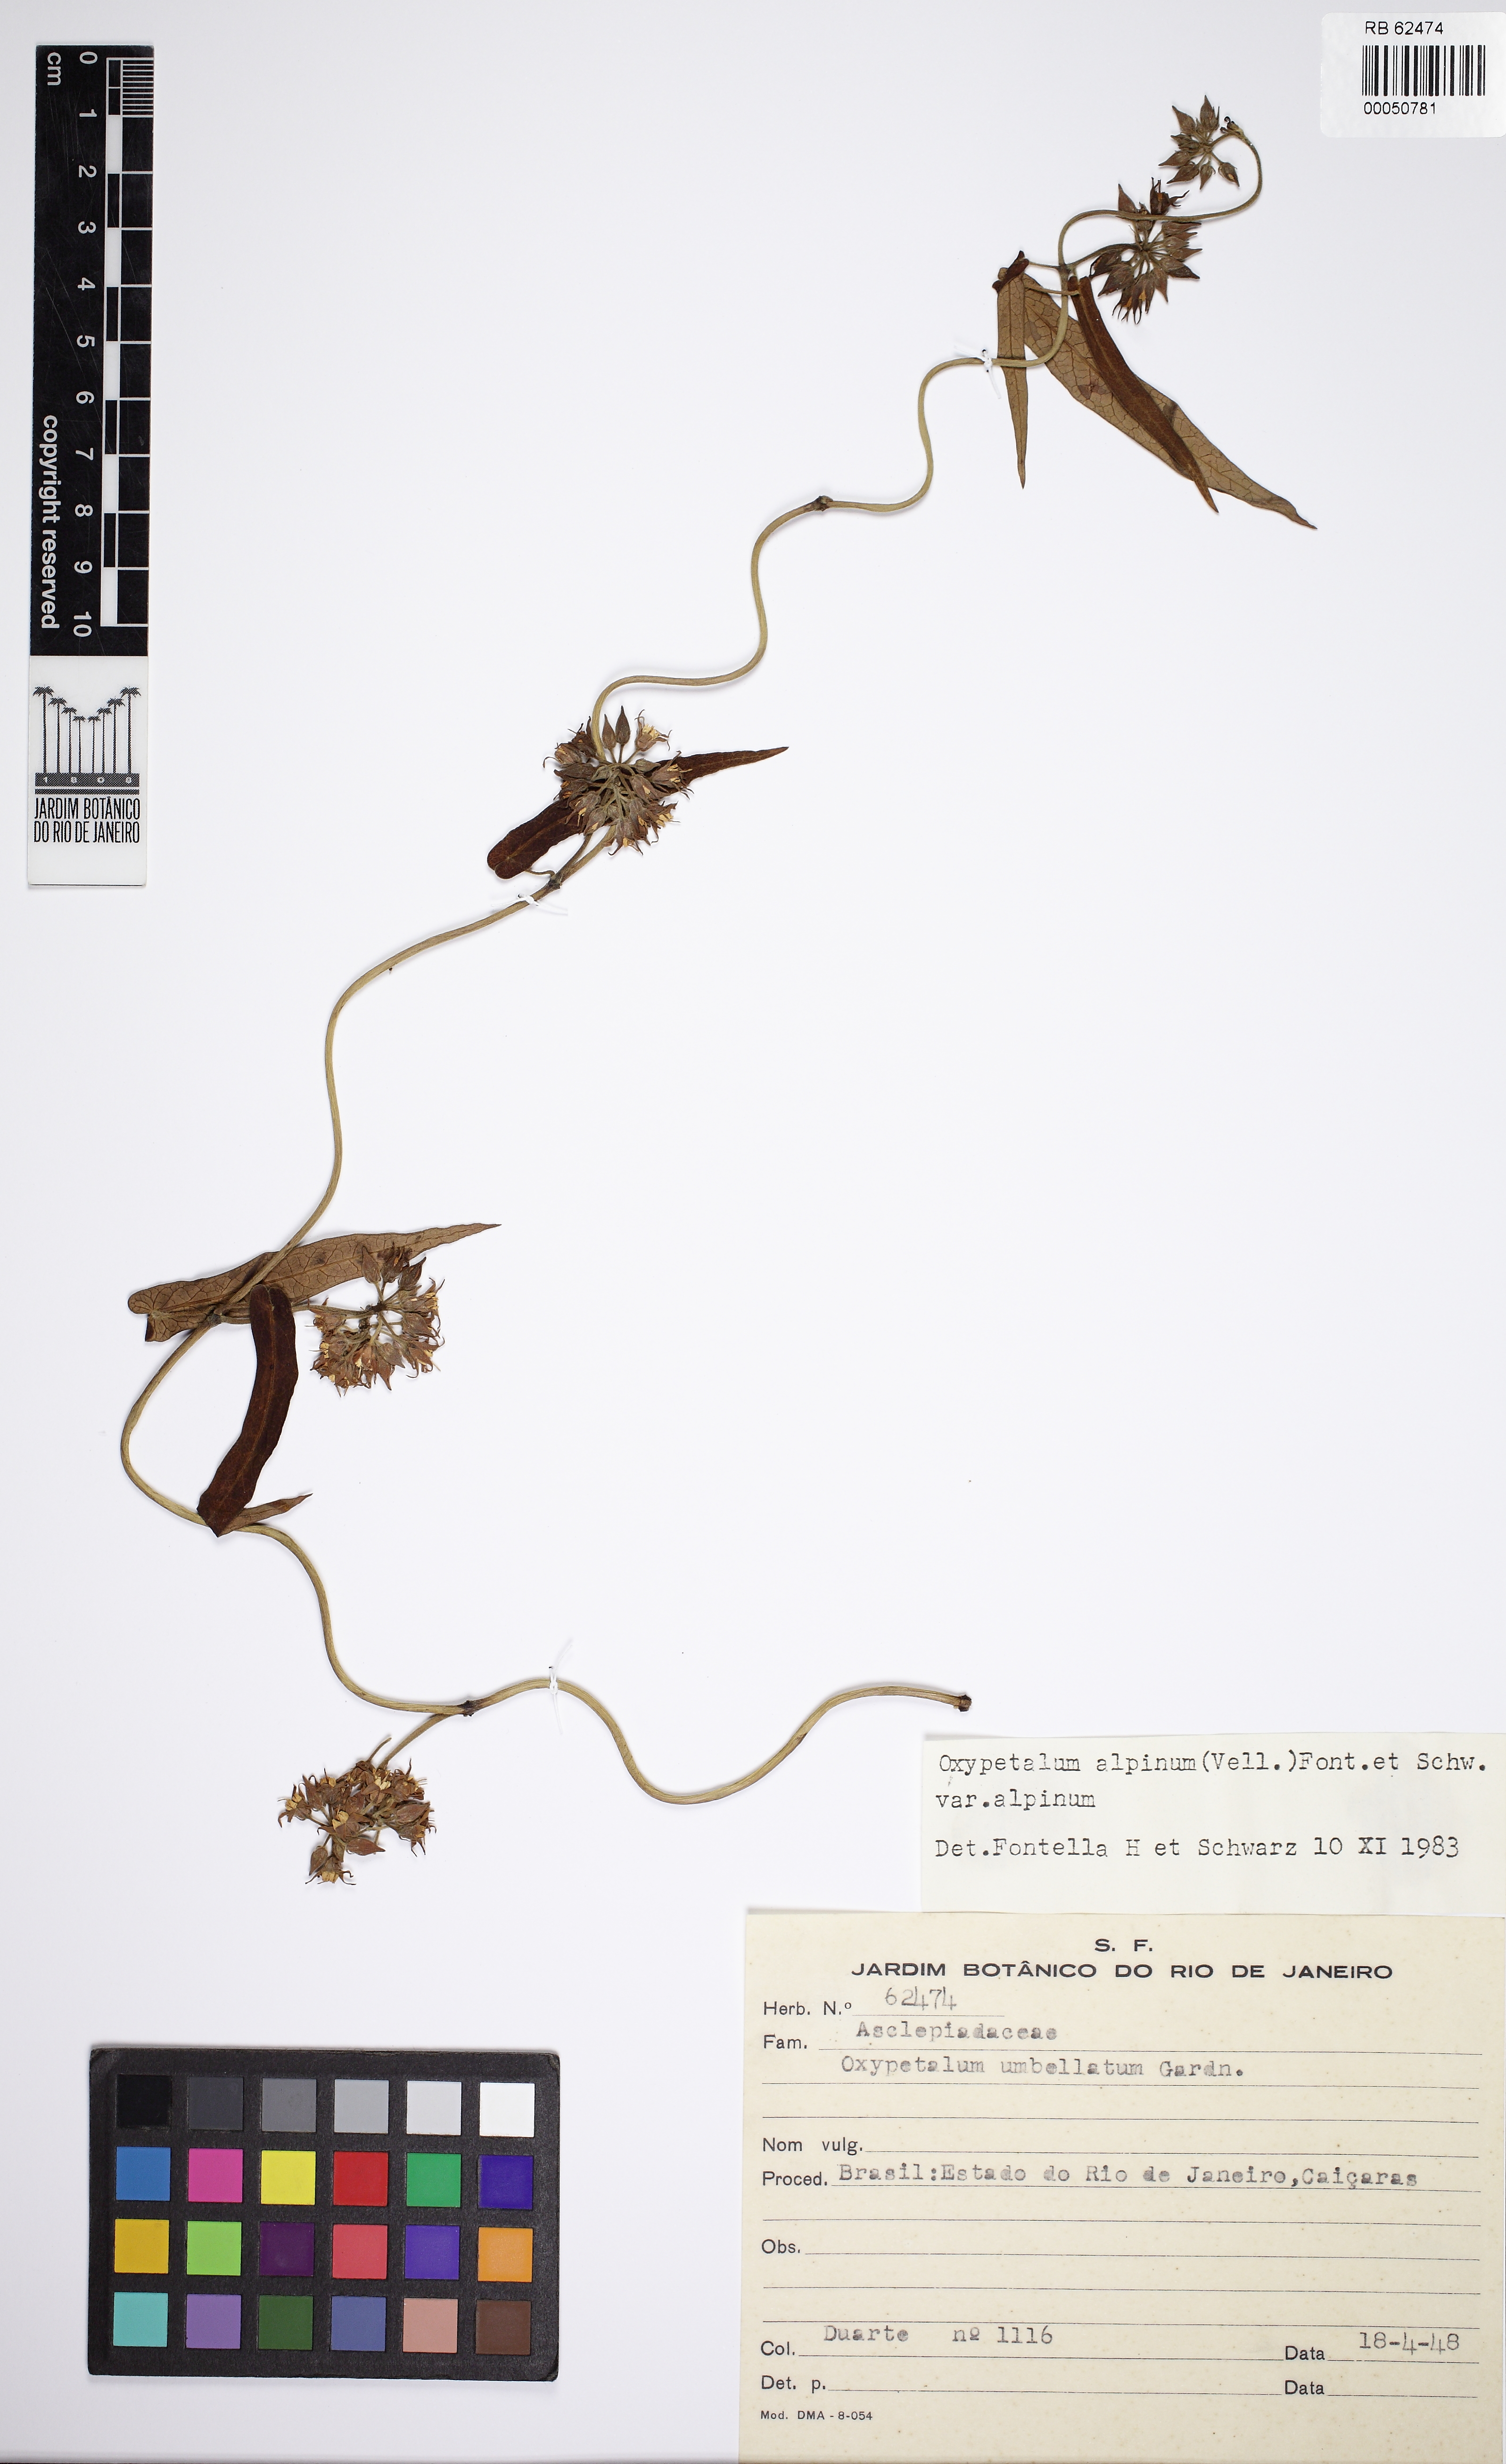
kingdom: Plantae
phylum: Tracheophyta
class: Magnoliopsida
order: Gentianales
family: Apocynaceae
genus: Oxypetalum
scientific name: Oxypetalum alpinum
